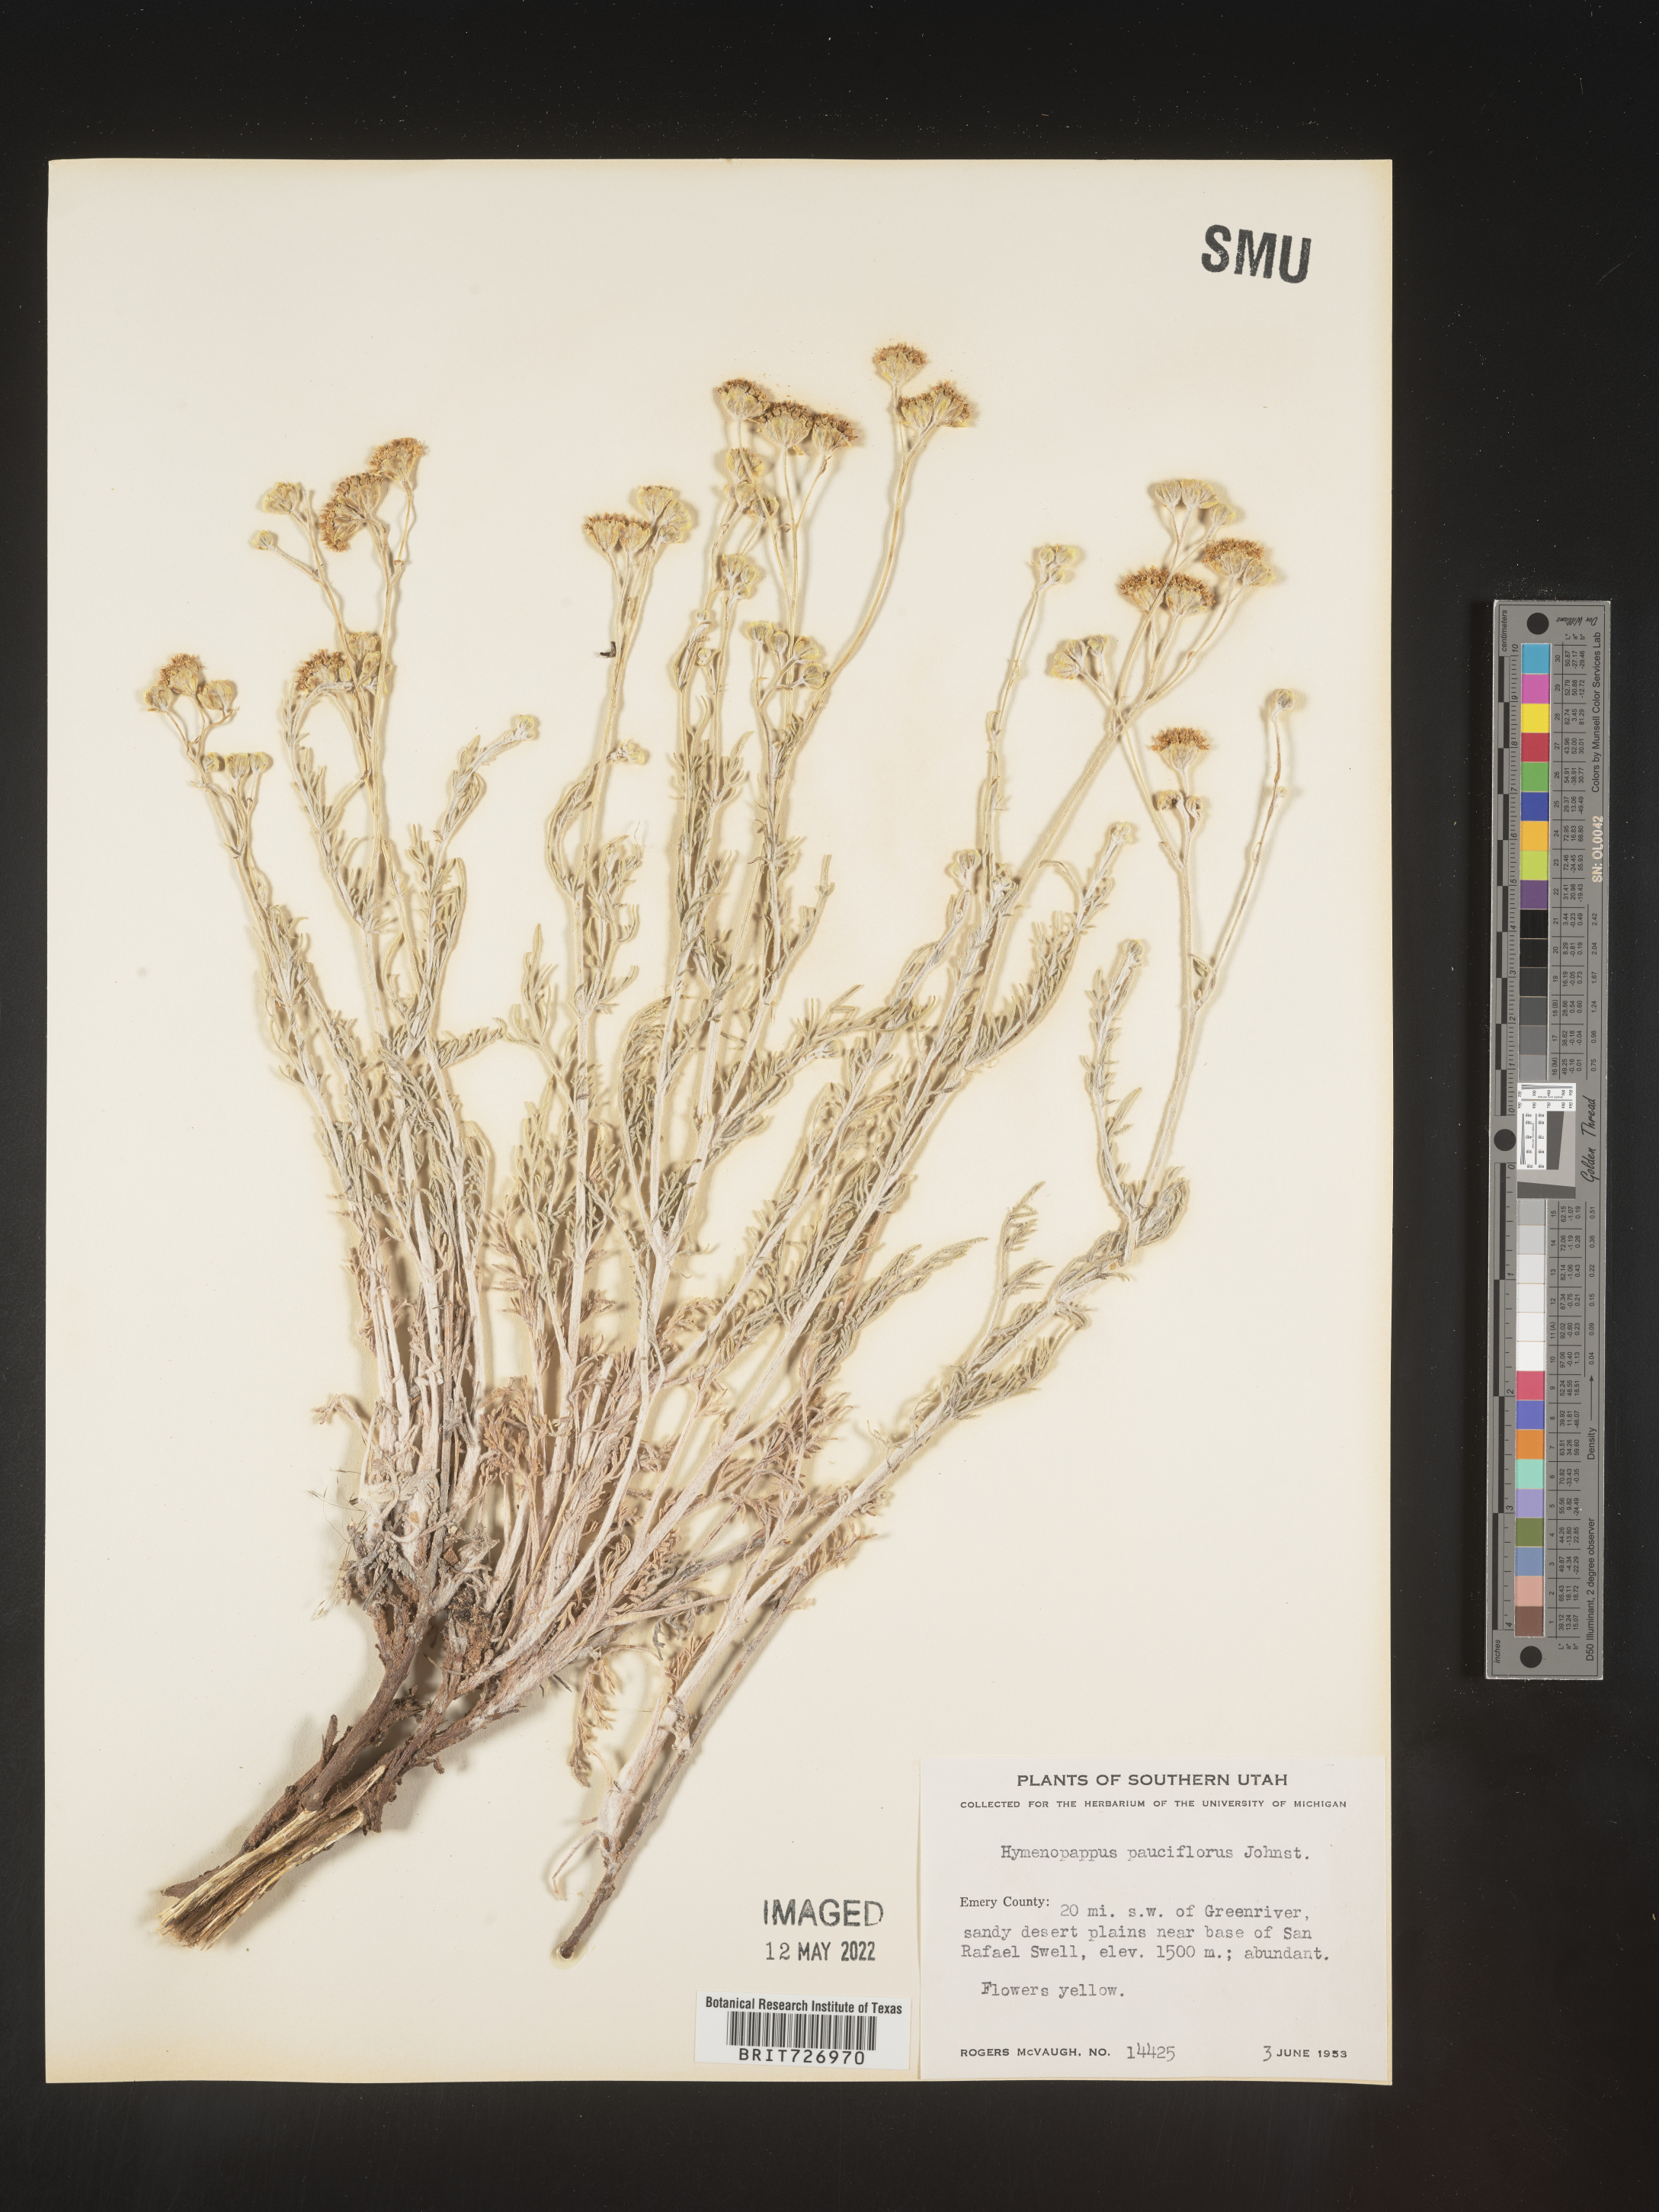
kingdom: Plantae
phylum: Tracheophyta
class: Magnoliopsida
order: Asterales
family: Asteraceae
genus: Hymenopappus
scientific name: Hymenopappus filifolius
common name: Columbia cutleaf
